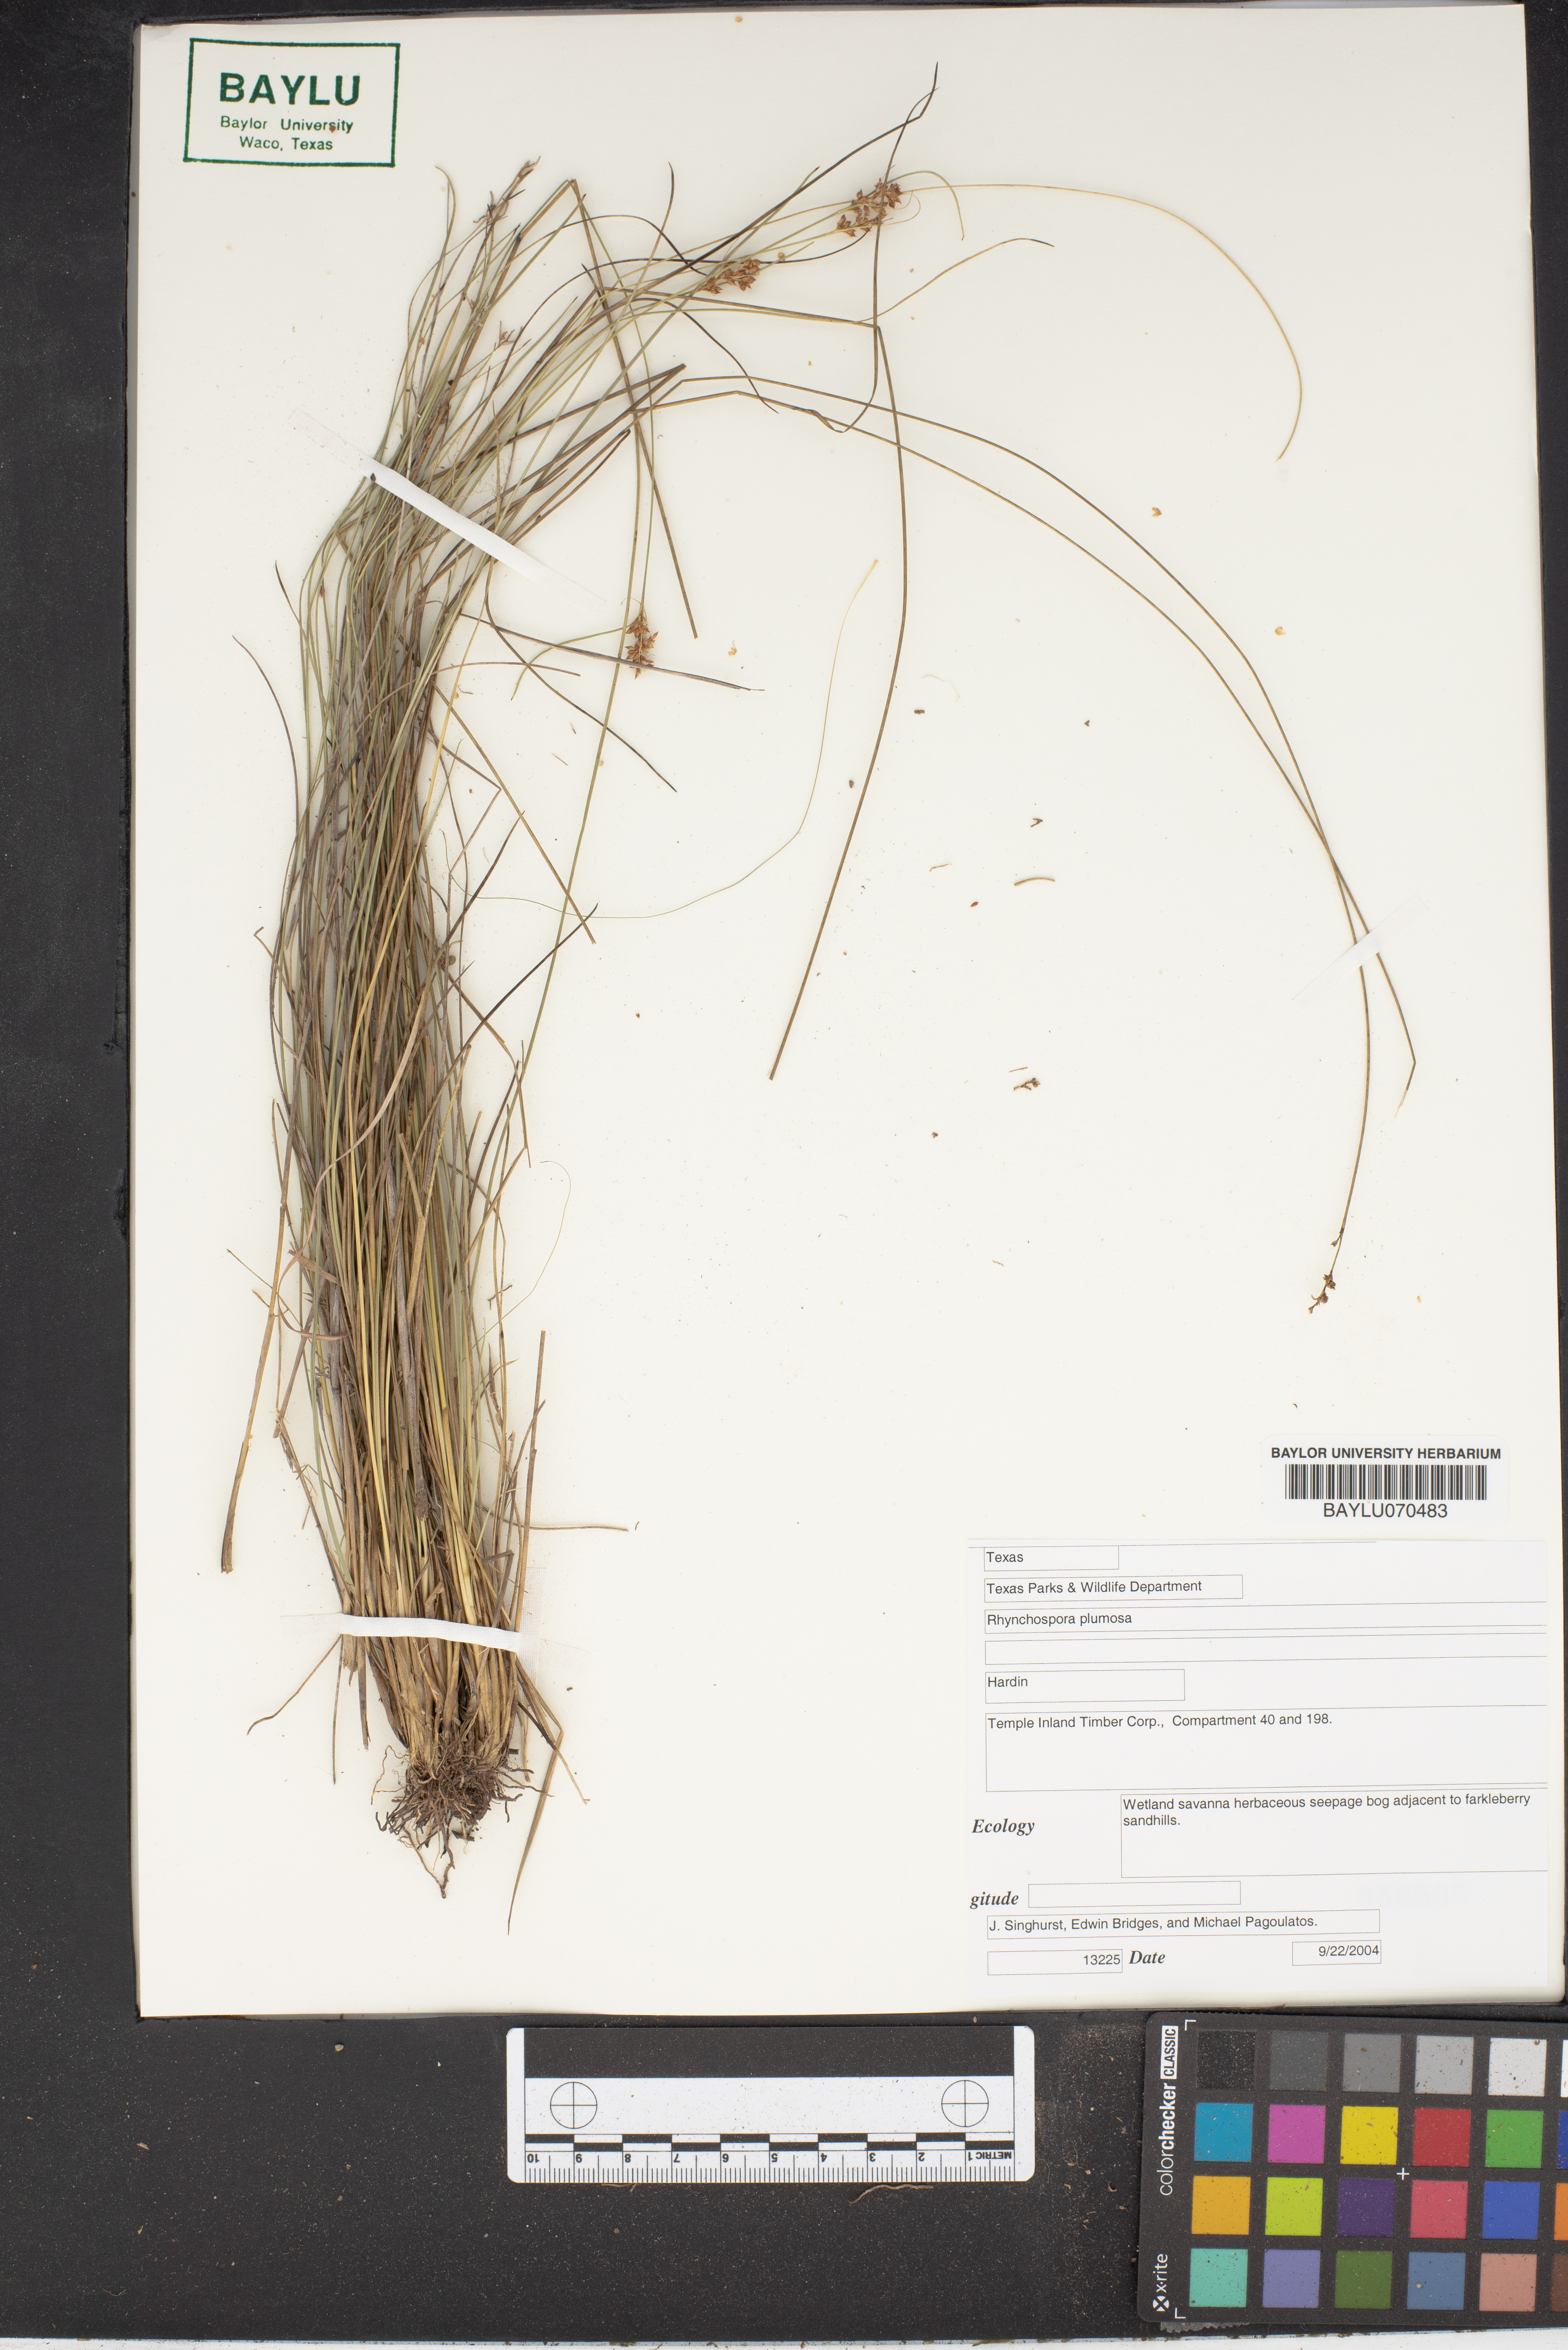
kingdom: Plantae
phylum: Tracheophyta
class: Liliopsida
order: Poales
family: Cyperaceae
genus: Rhynchospora
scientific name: Rhynchospora plumosa
